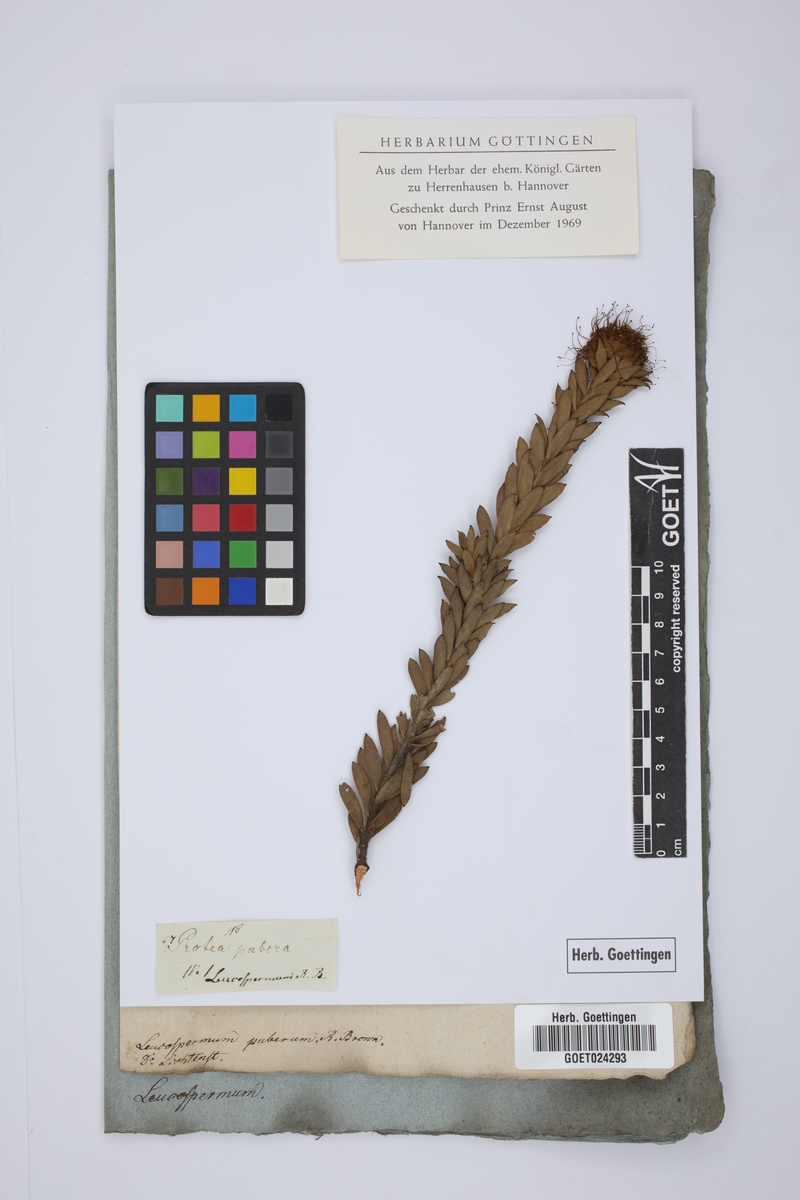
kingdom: Plantae
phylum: Tracheophyta
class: Magnoliopsida
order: Proteales
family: Proteaceae
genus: Leucospermum
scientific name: Leucospermum calligerum
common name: Arid pincushion
